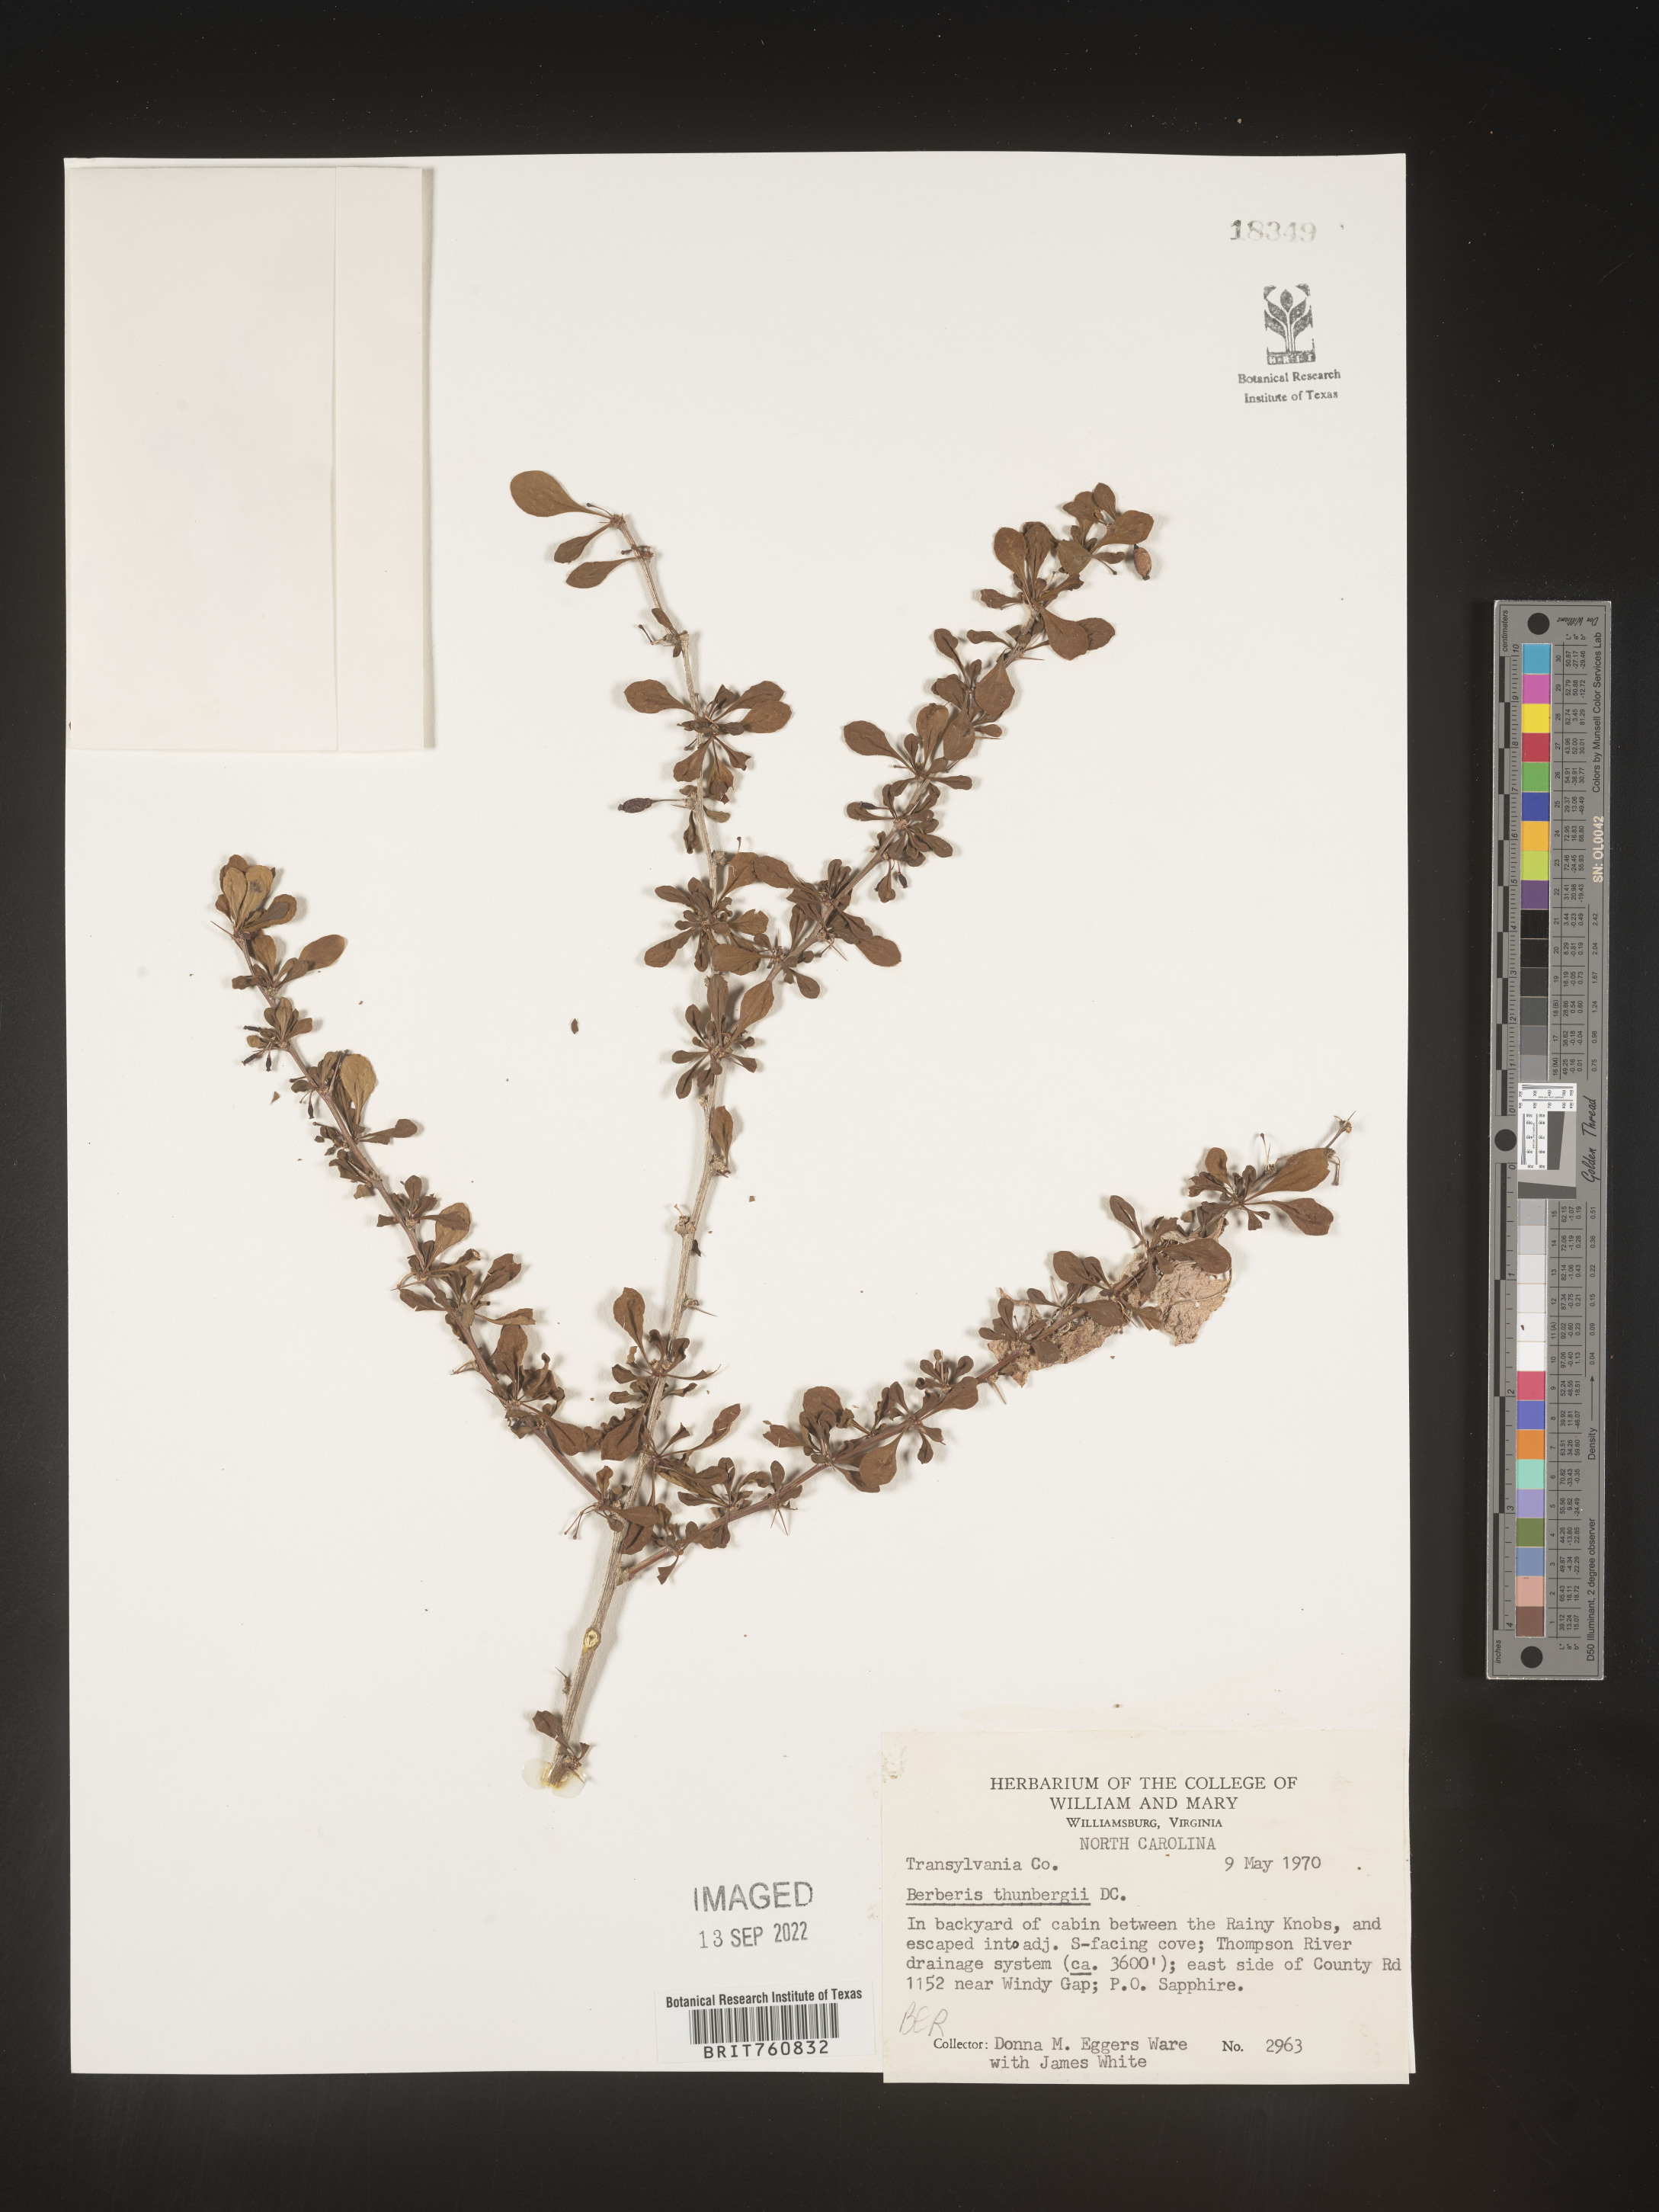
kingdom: Plantae
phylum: Tracheophyta
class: Magnoliopsida
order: Ranunculales
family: Berberidaceae
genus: Berberis
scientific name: Berberis
